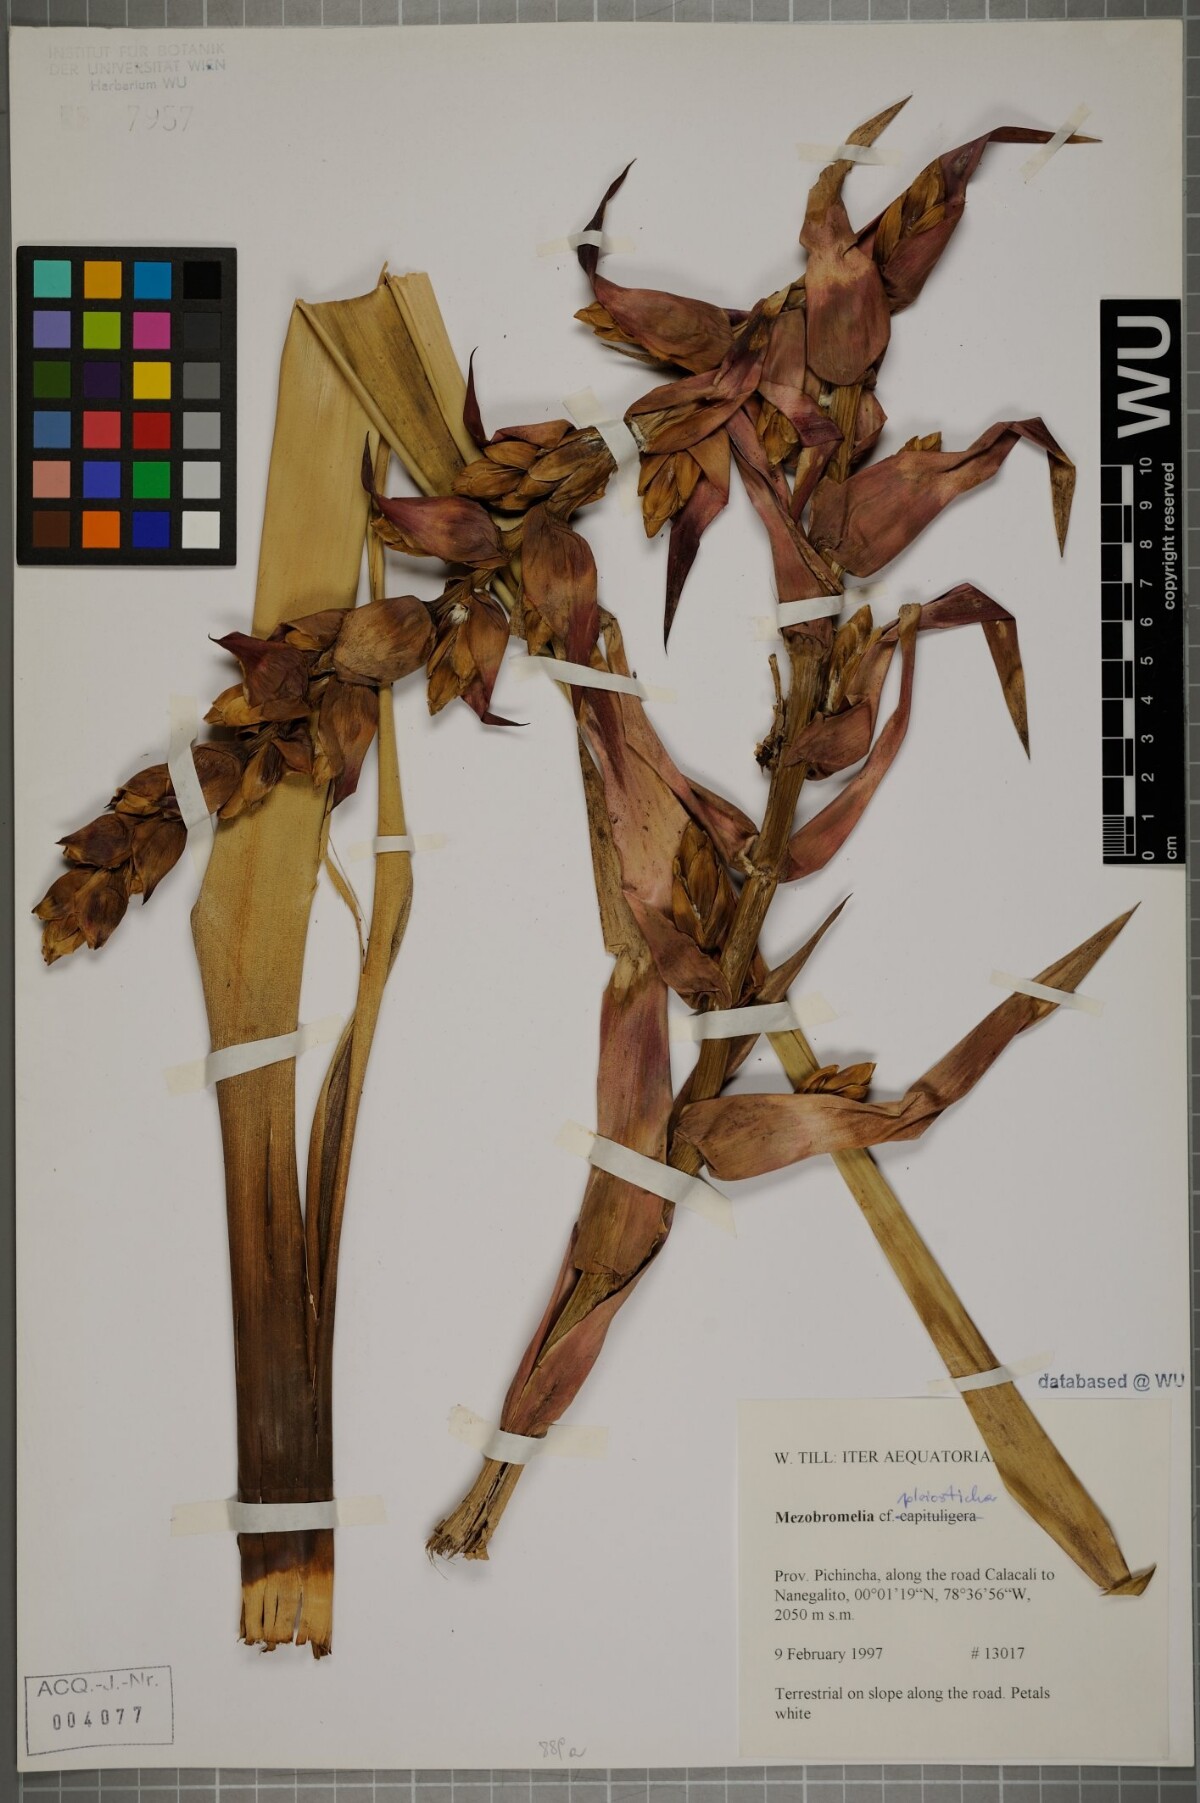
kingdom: Plantae
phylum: Tracheophyta
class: Liliopsida
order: Poales
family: Bromeliaceae
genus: Vriesea
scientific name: Vriesea pleiosticha
